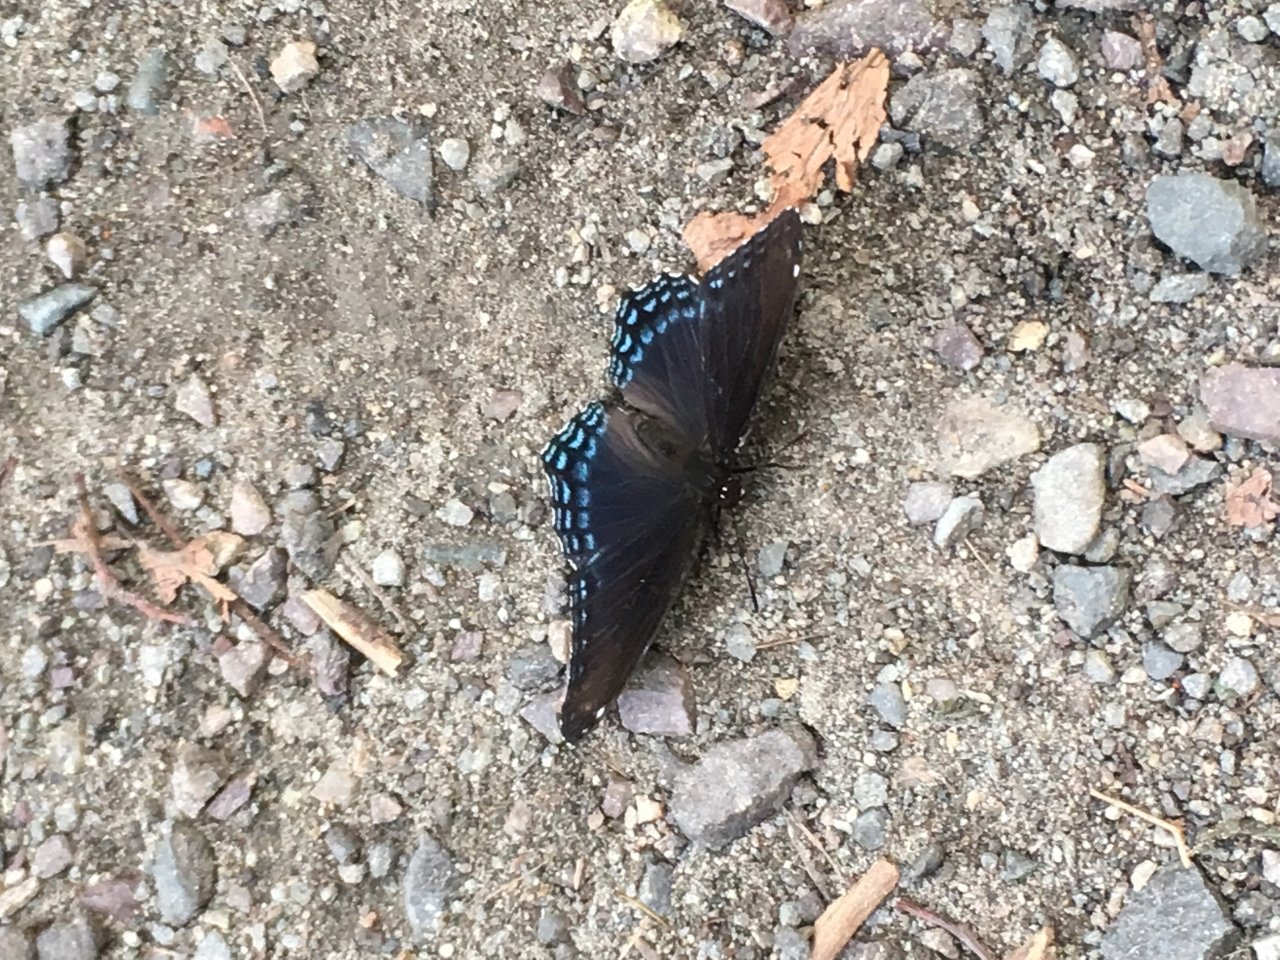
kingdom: Animalia
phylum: Arthropoda
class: Insecta
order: Lepidoptera
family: Nymphalidae
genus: Limenitis
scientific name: Limenitis astyanax
